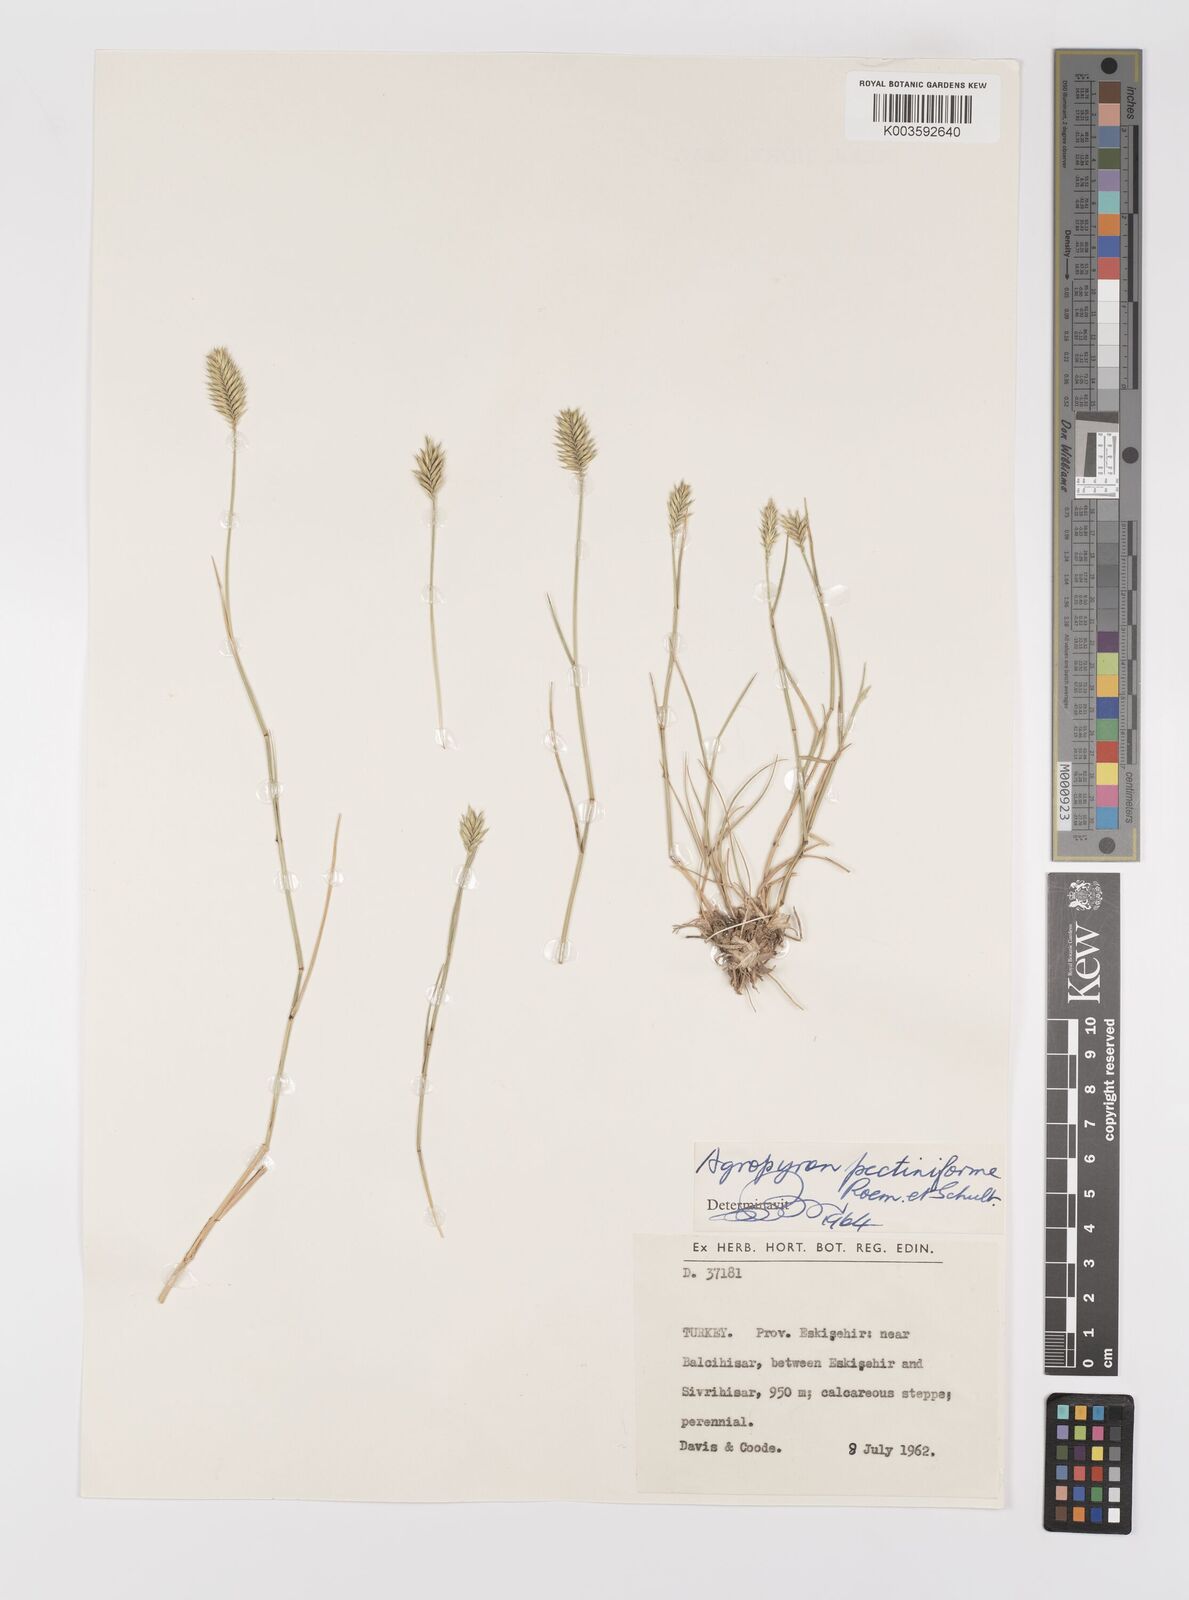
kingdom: Plantae
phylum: Tracheophyta
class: Liliopsida
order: Poales
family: Poaceae
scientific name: Poaceae
